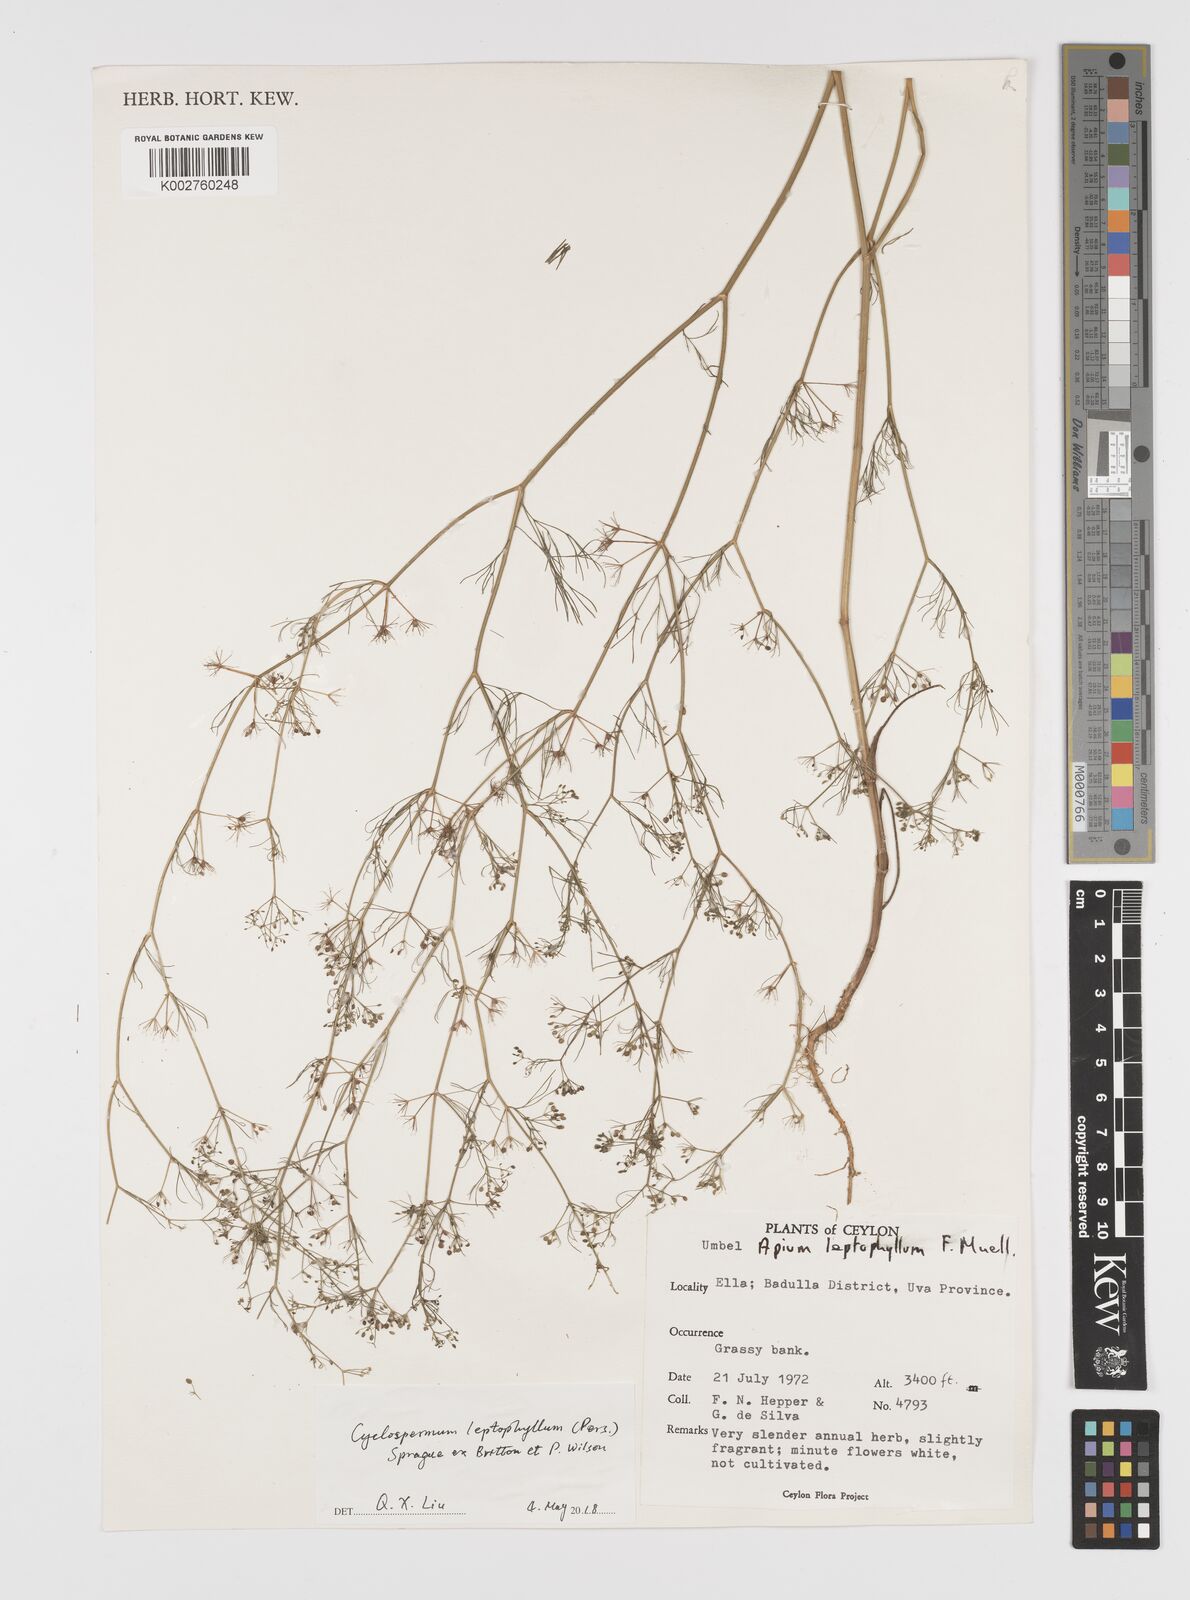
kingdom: Plantae
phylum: Tracheophyta
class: Magnoliopsida
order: Apiales
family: Apiaceae
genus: Cyclospermum
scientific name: Cyclospermum leptophyllum
